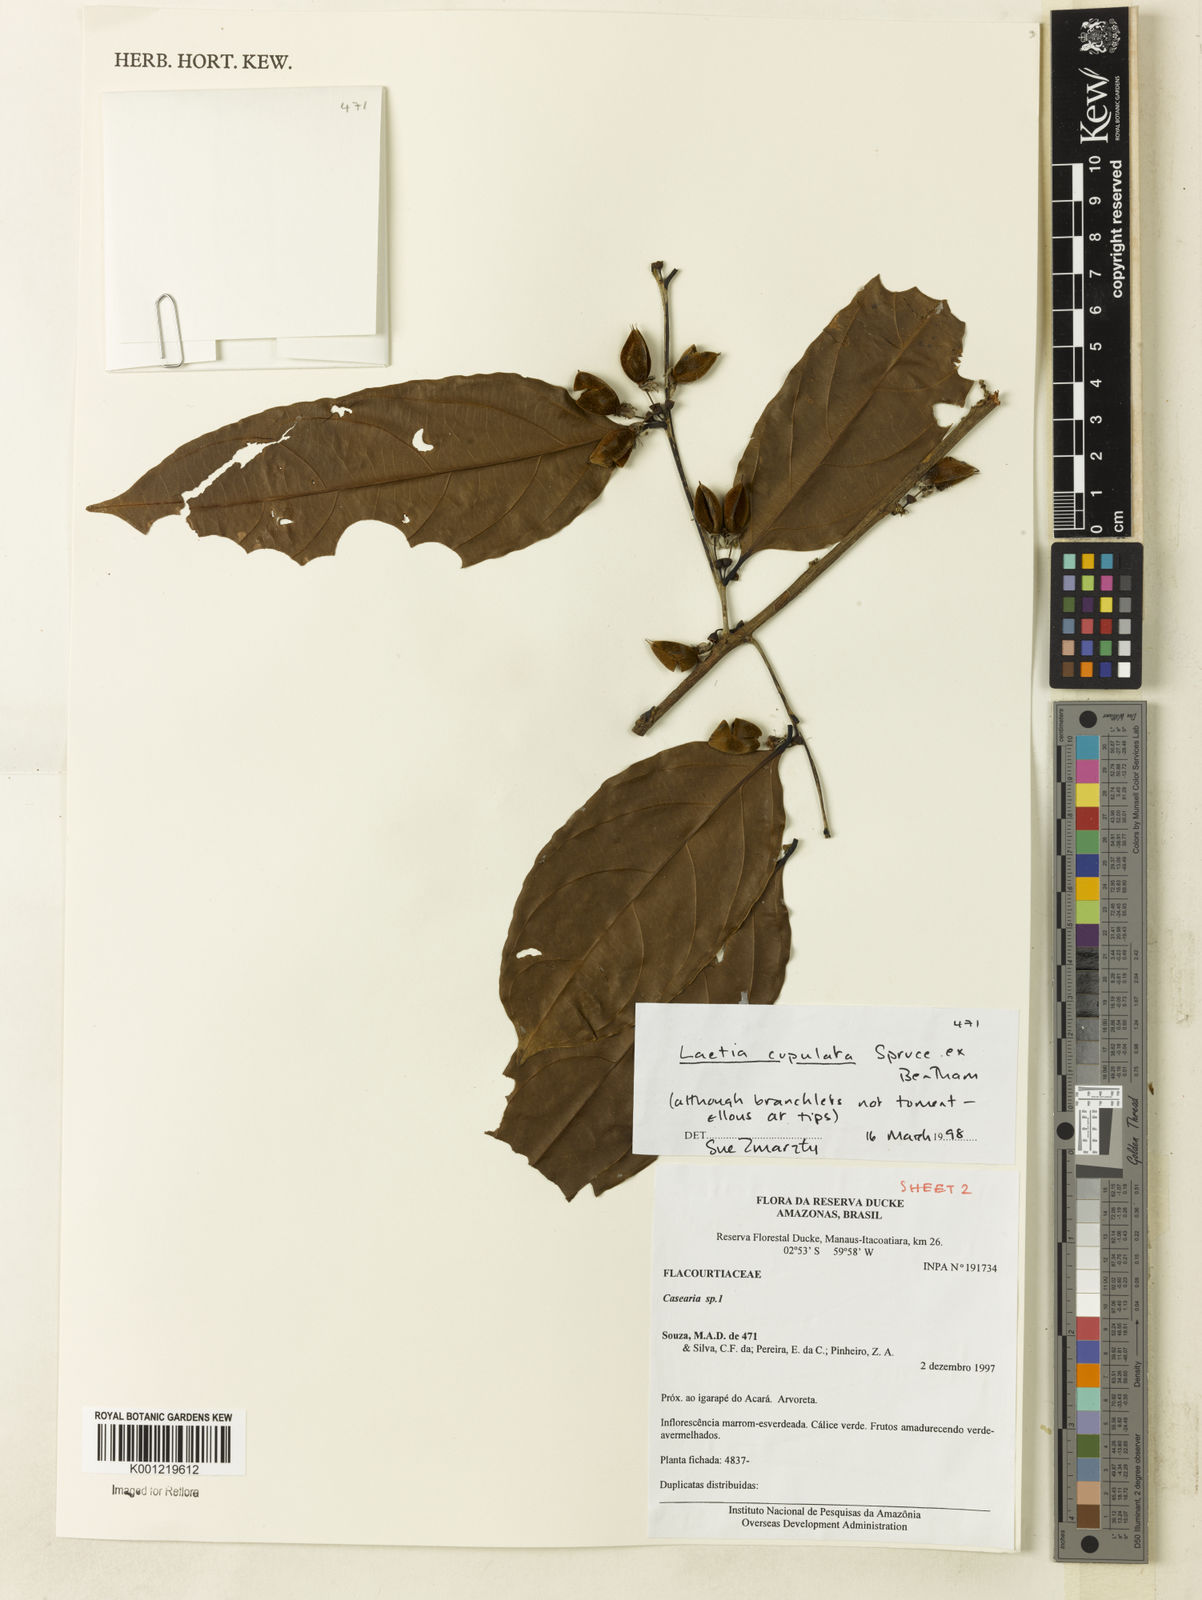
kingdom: Plantae
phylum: Tracheophyta
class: Magnoliopsida
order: Malpighiales
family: Salicaceae
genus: Irenodendron
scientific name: Irenodendron cupulatum
